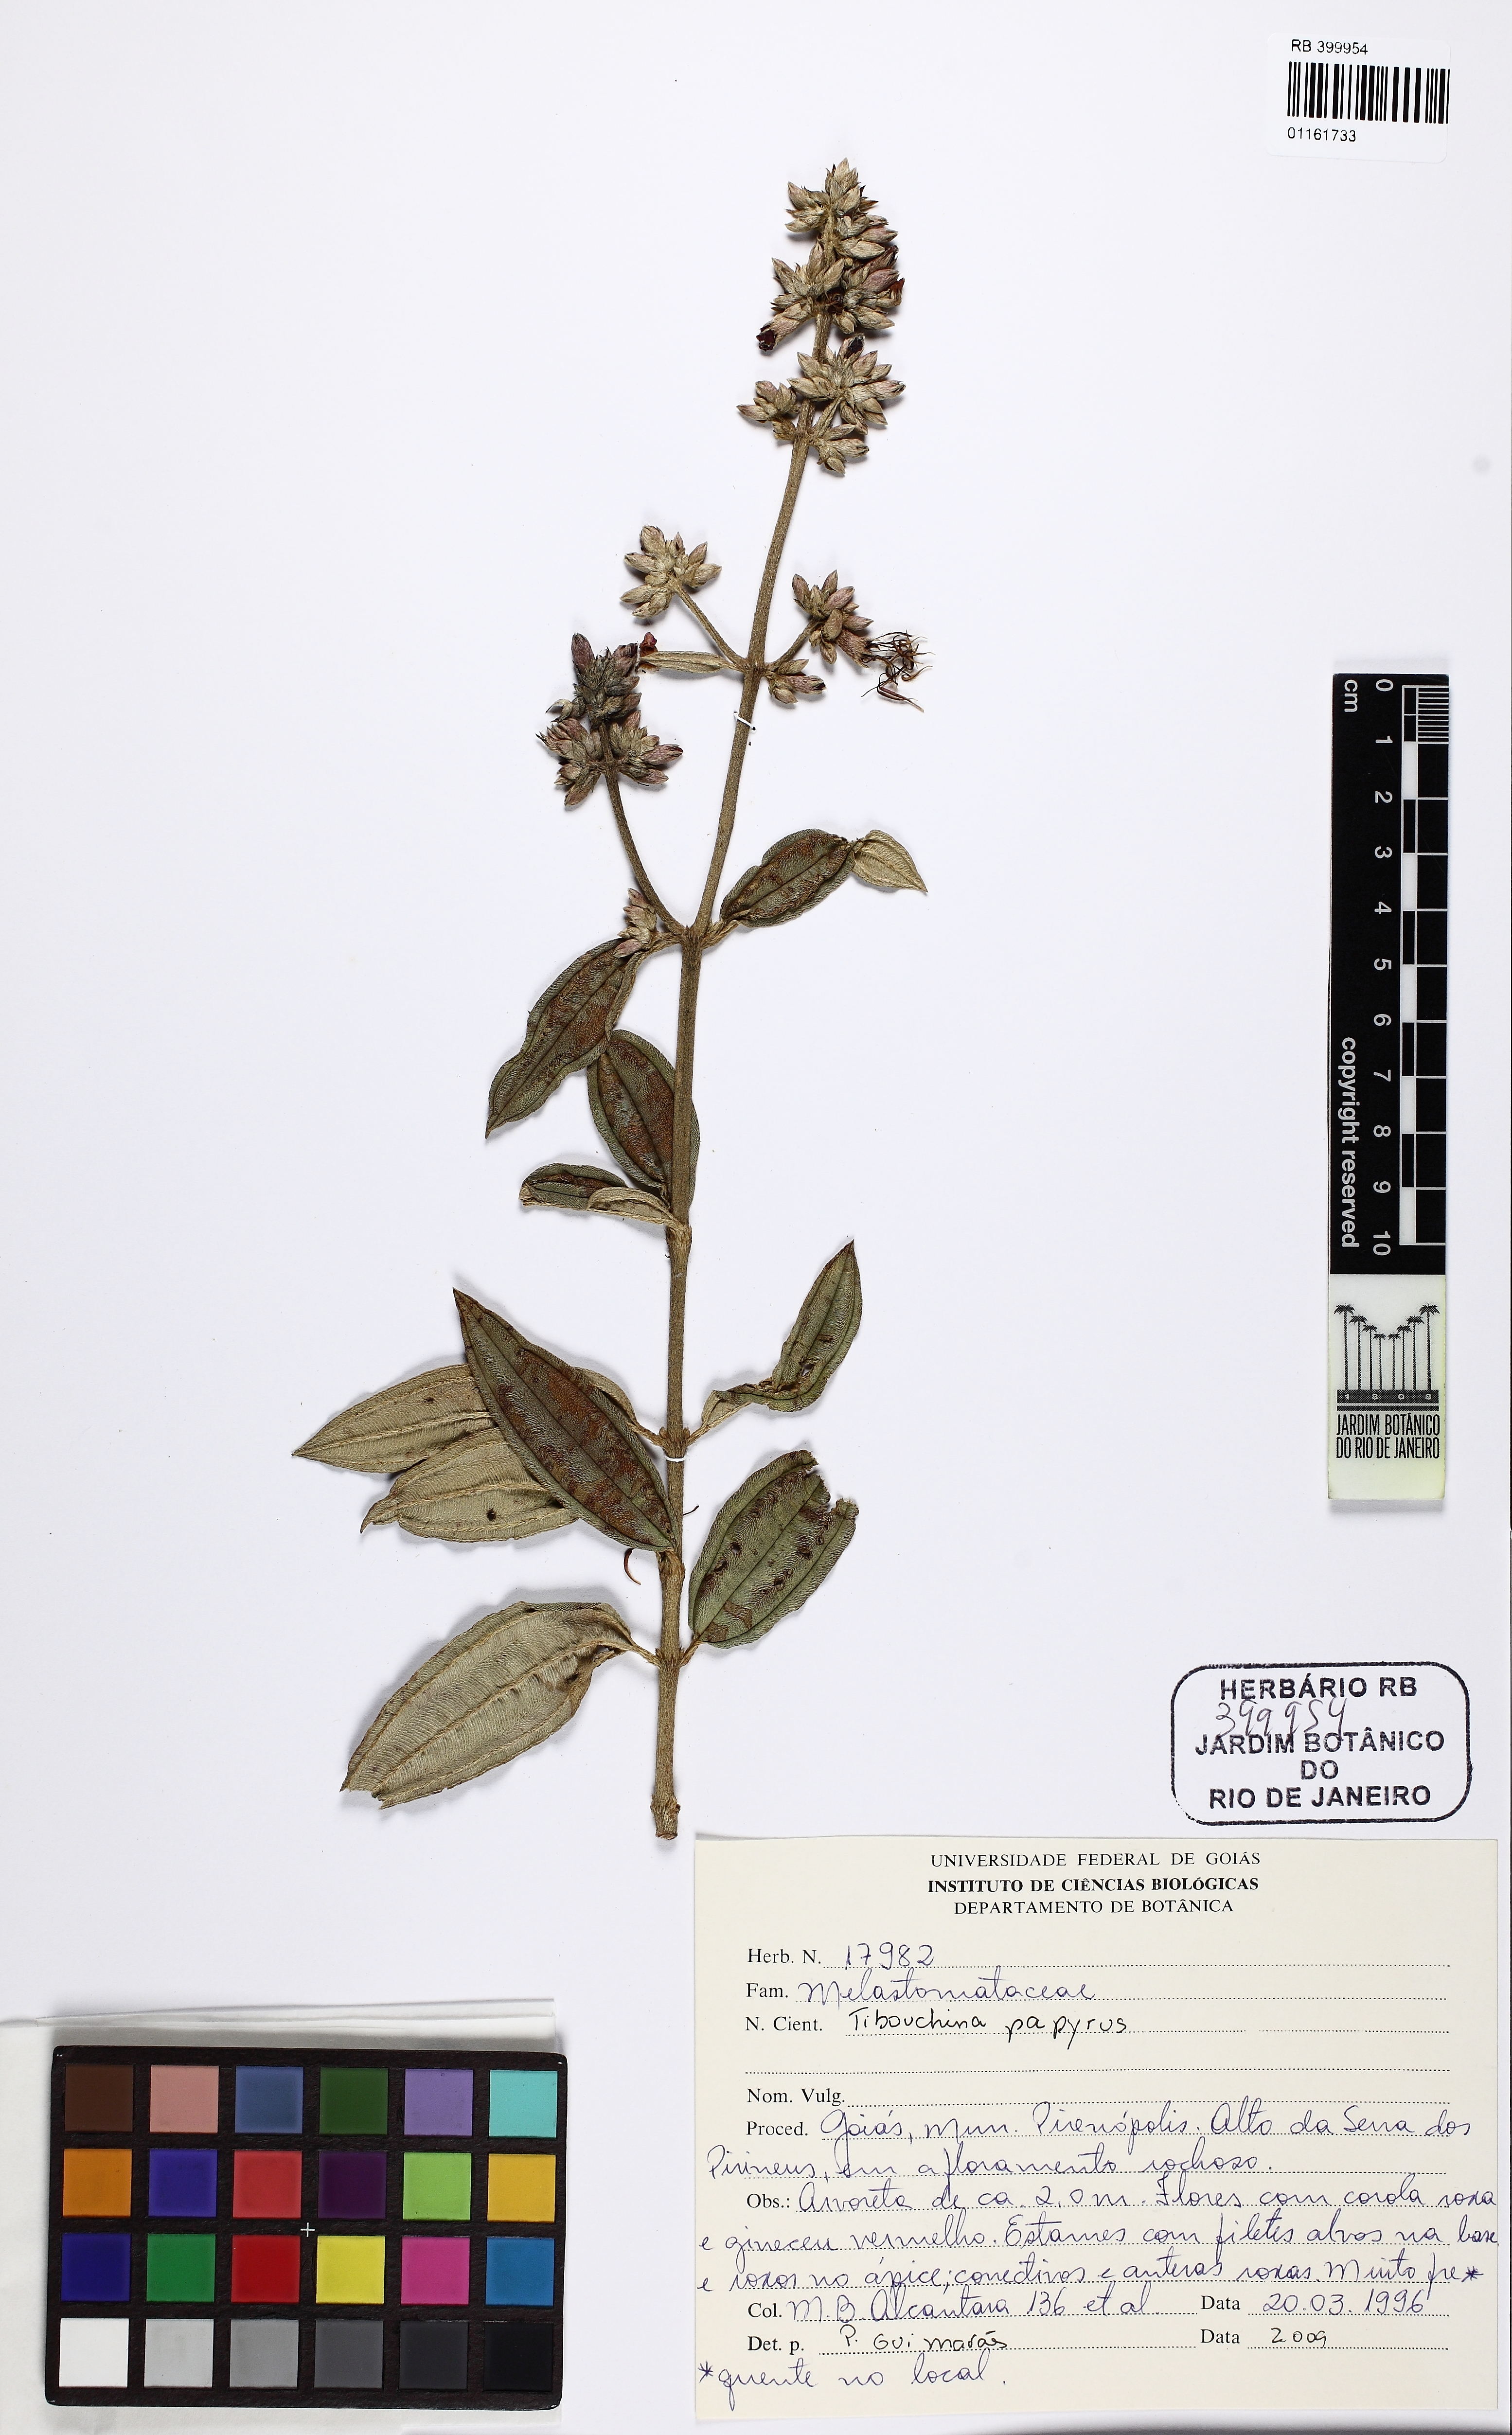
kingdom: Plantae
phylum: Tracheophyta
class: Magnoliopsida
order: Myrtales
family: Melastomataceae
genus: Pleroma
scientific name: Pleroma papyriferum
